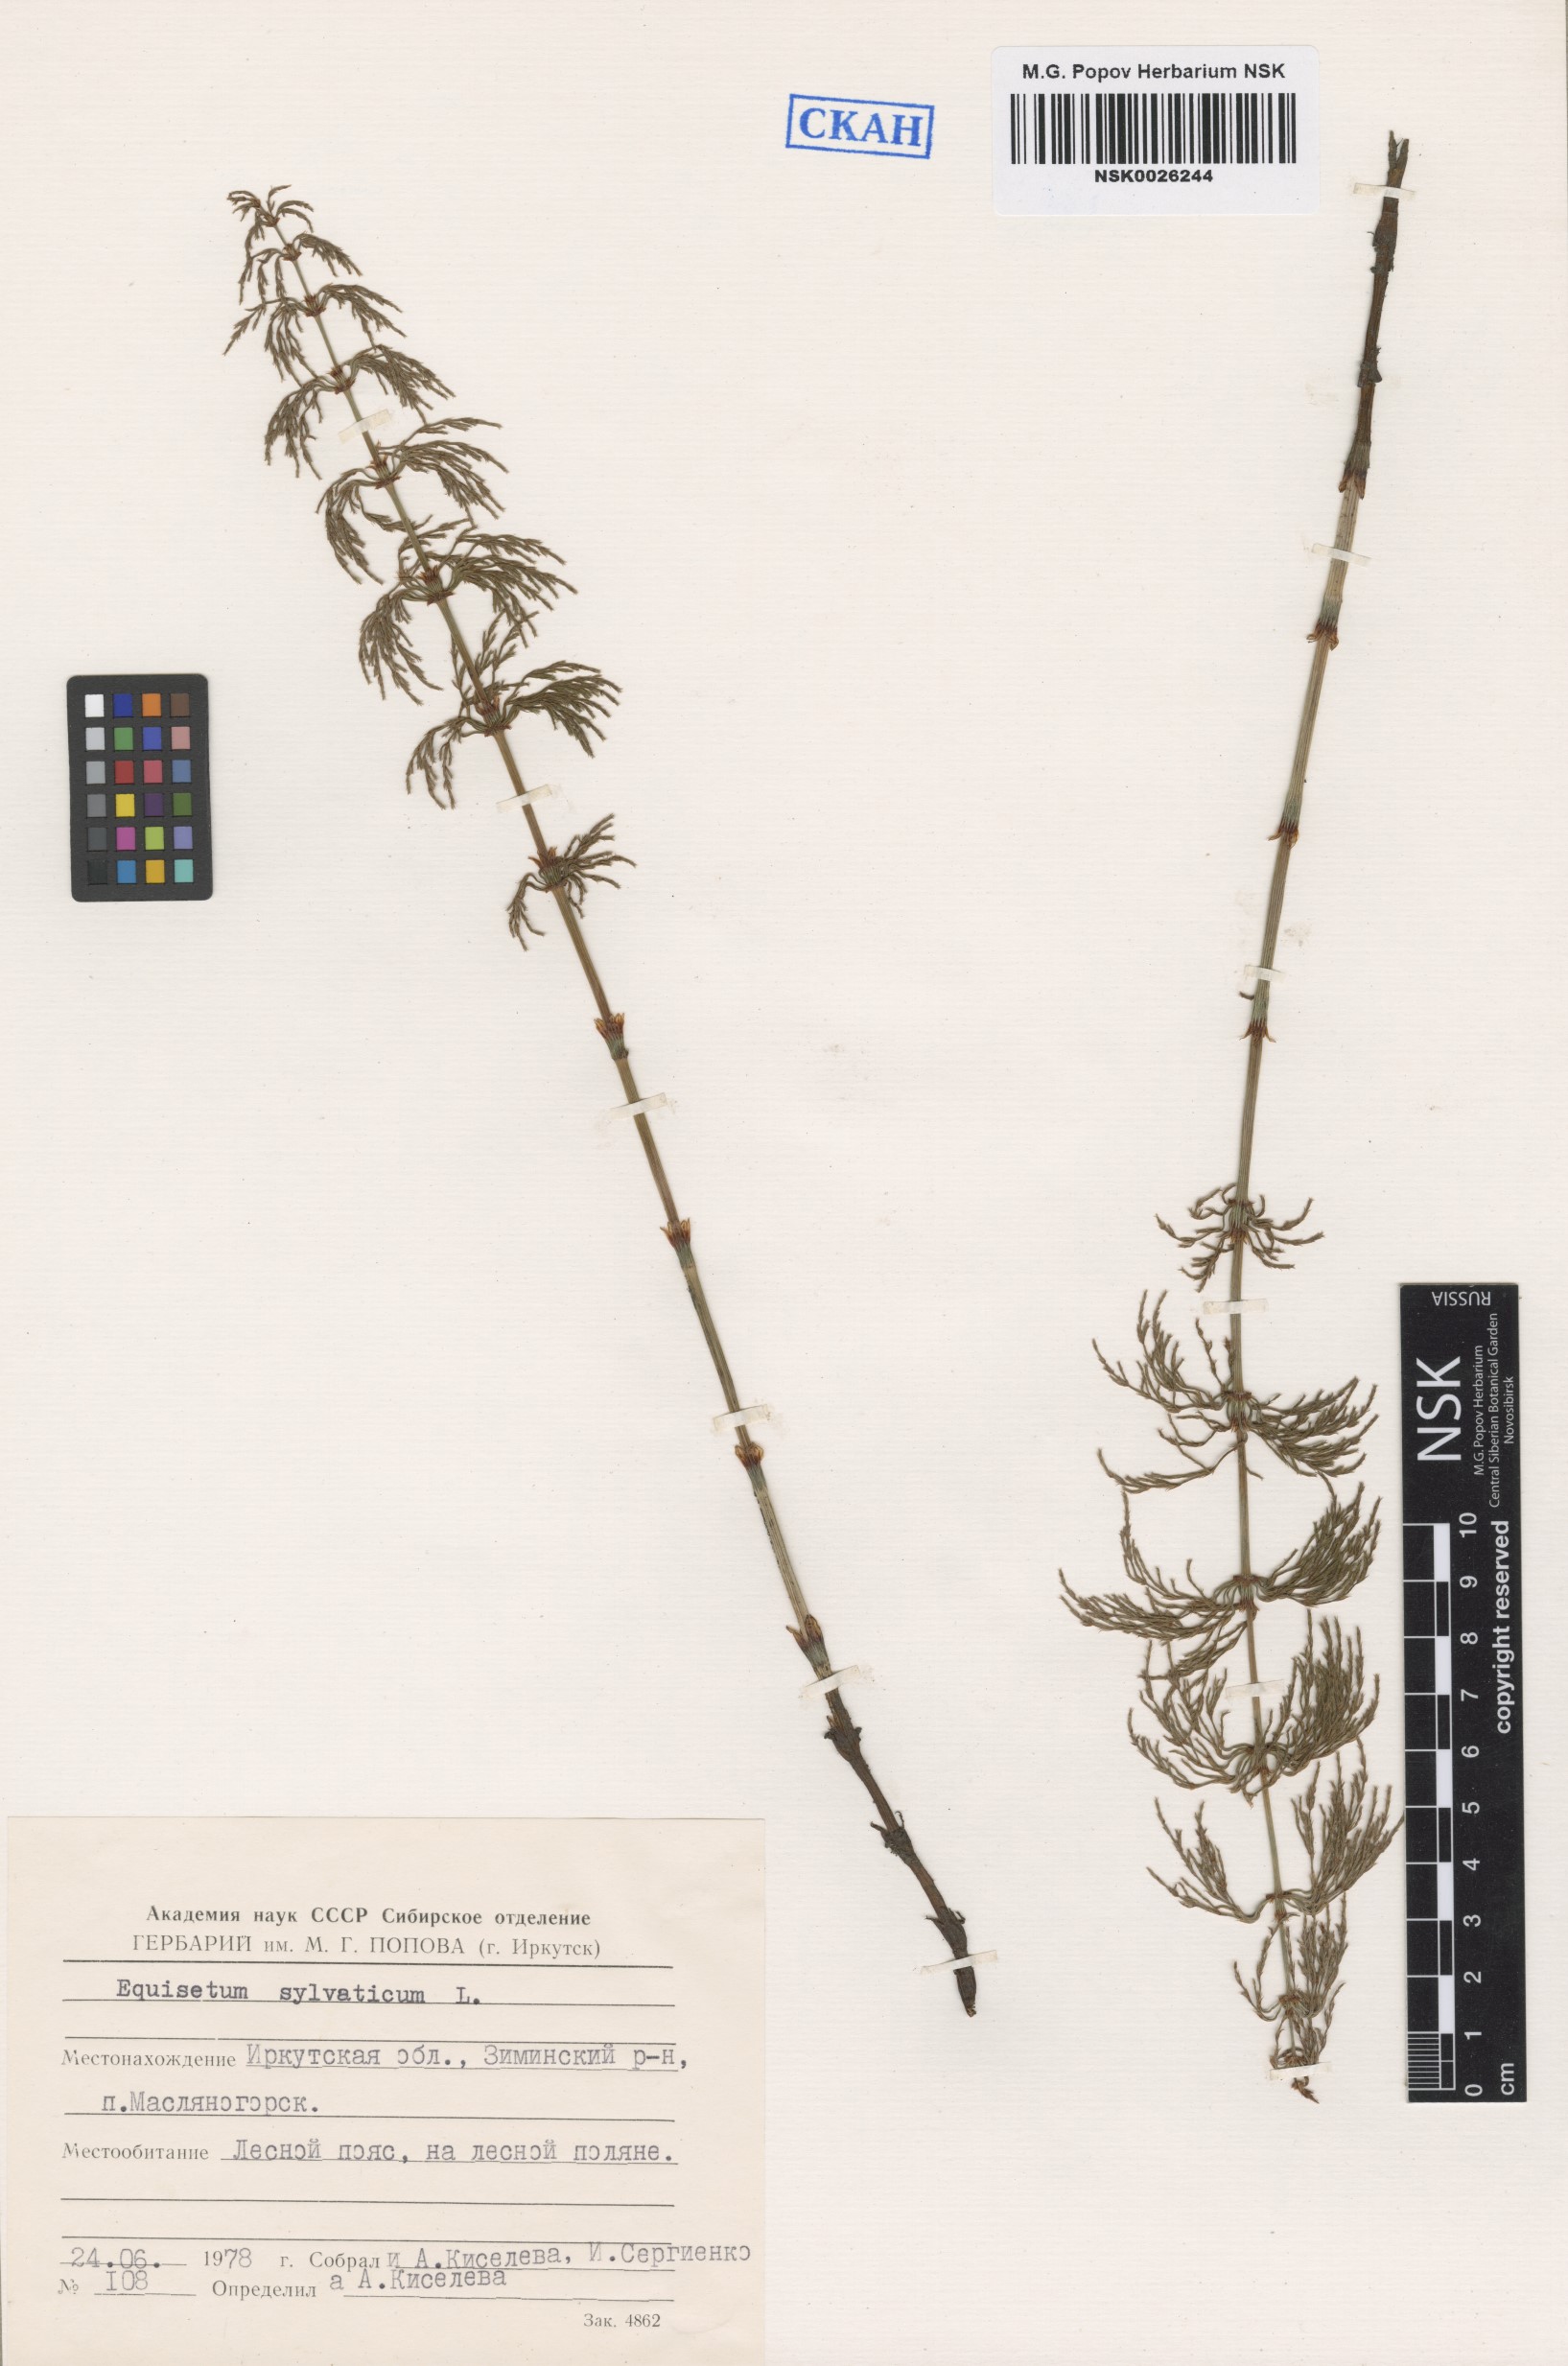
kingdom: Plantae
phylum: Tracheophyta
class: Polypodiopsida
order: Equisetales
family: Equisetaceae
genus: Equisetum
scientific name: Equisetum sylvaticum
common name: Wood horsetail
